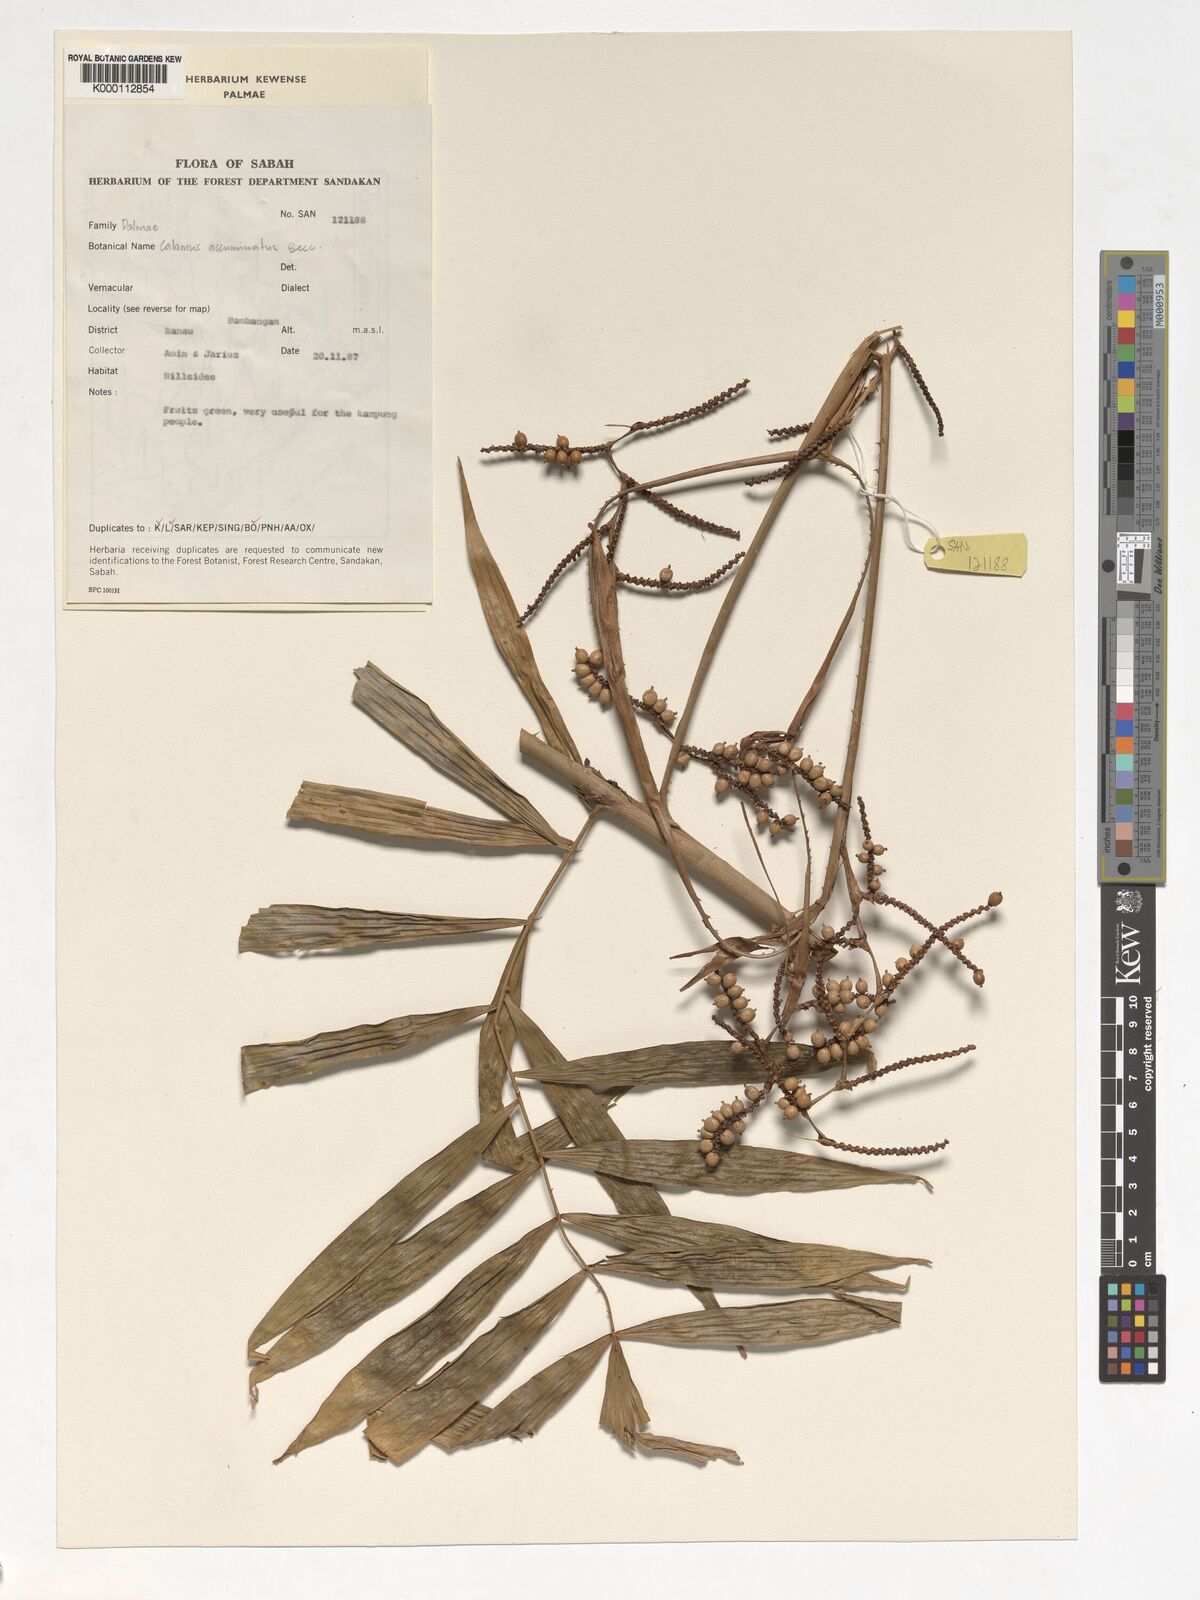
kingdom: Plantae
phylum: Tracheophyta
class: Liliopsida
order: Arecales
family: Arecaceae
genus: Calamus
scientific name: Calamus javensis
